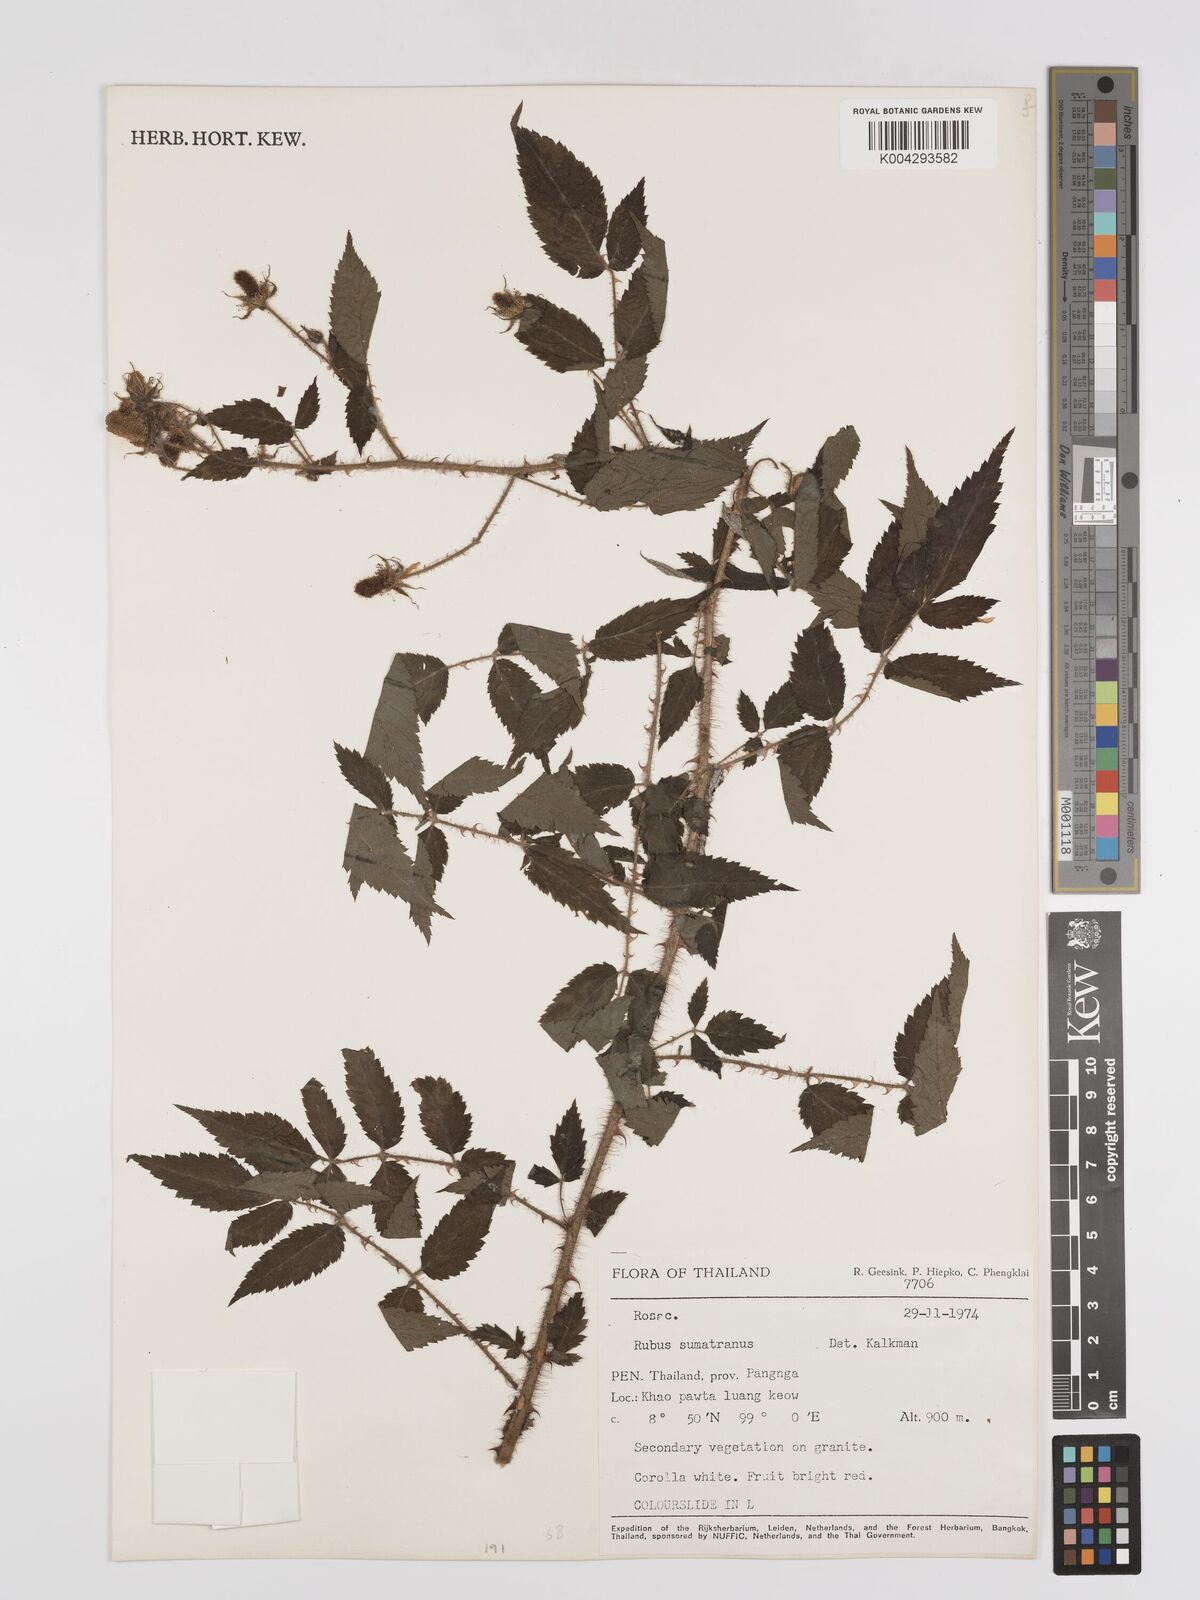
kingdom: Plantae
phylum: Tracheophyta
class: Magnoliopsida
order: Rosales
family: Rosaceae
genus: Rubus
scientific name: Rubus sumatranus
